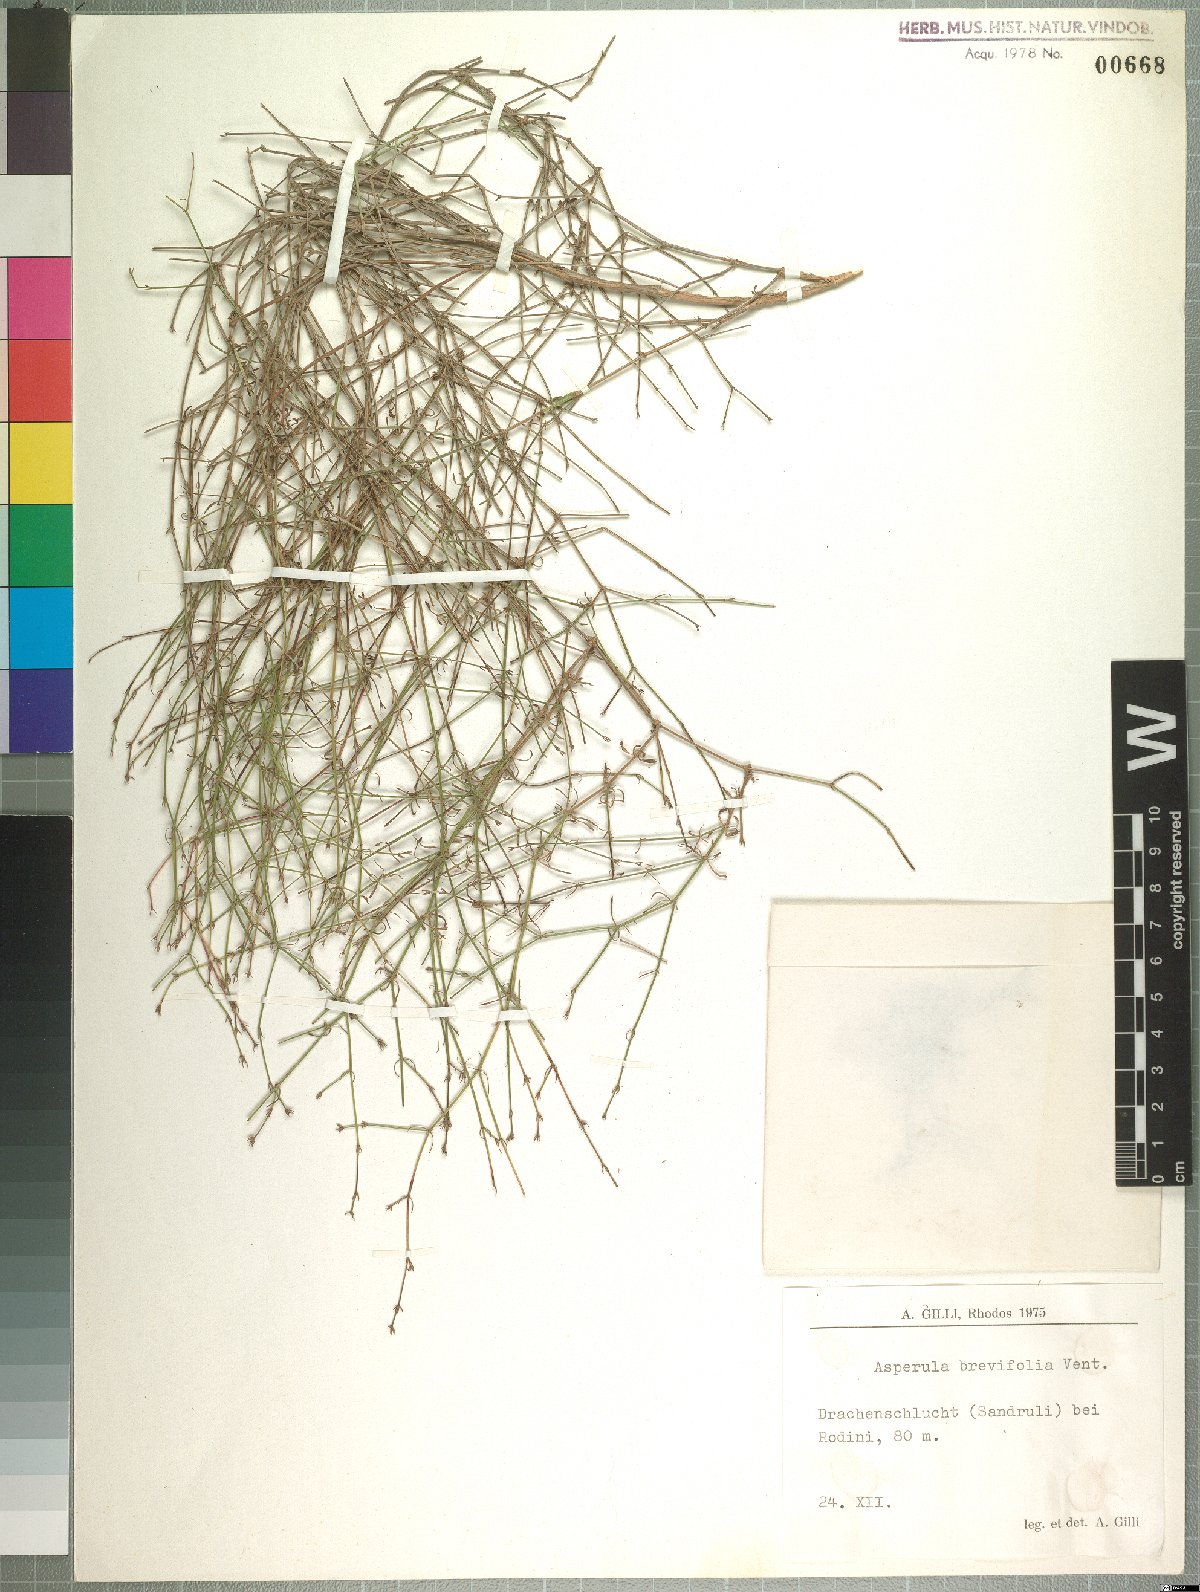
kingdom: Plantae
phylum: Tracheophyta
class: Magnoliopsida
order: Gentianales
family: Rubiaceae
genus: Thliphthisa
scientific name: Thliphthisa brevifolia
